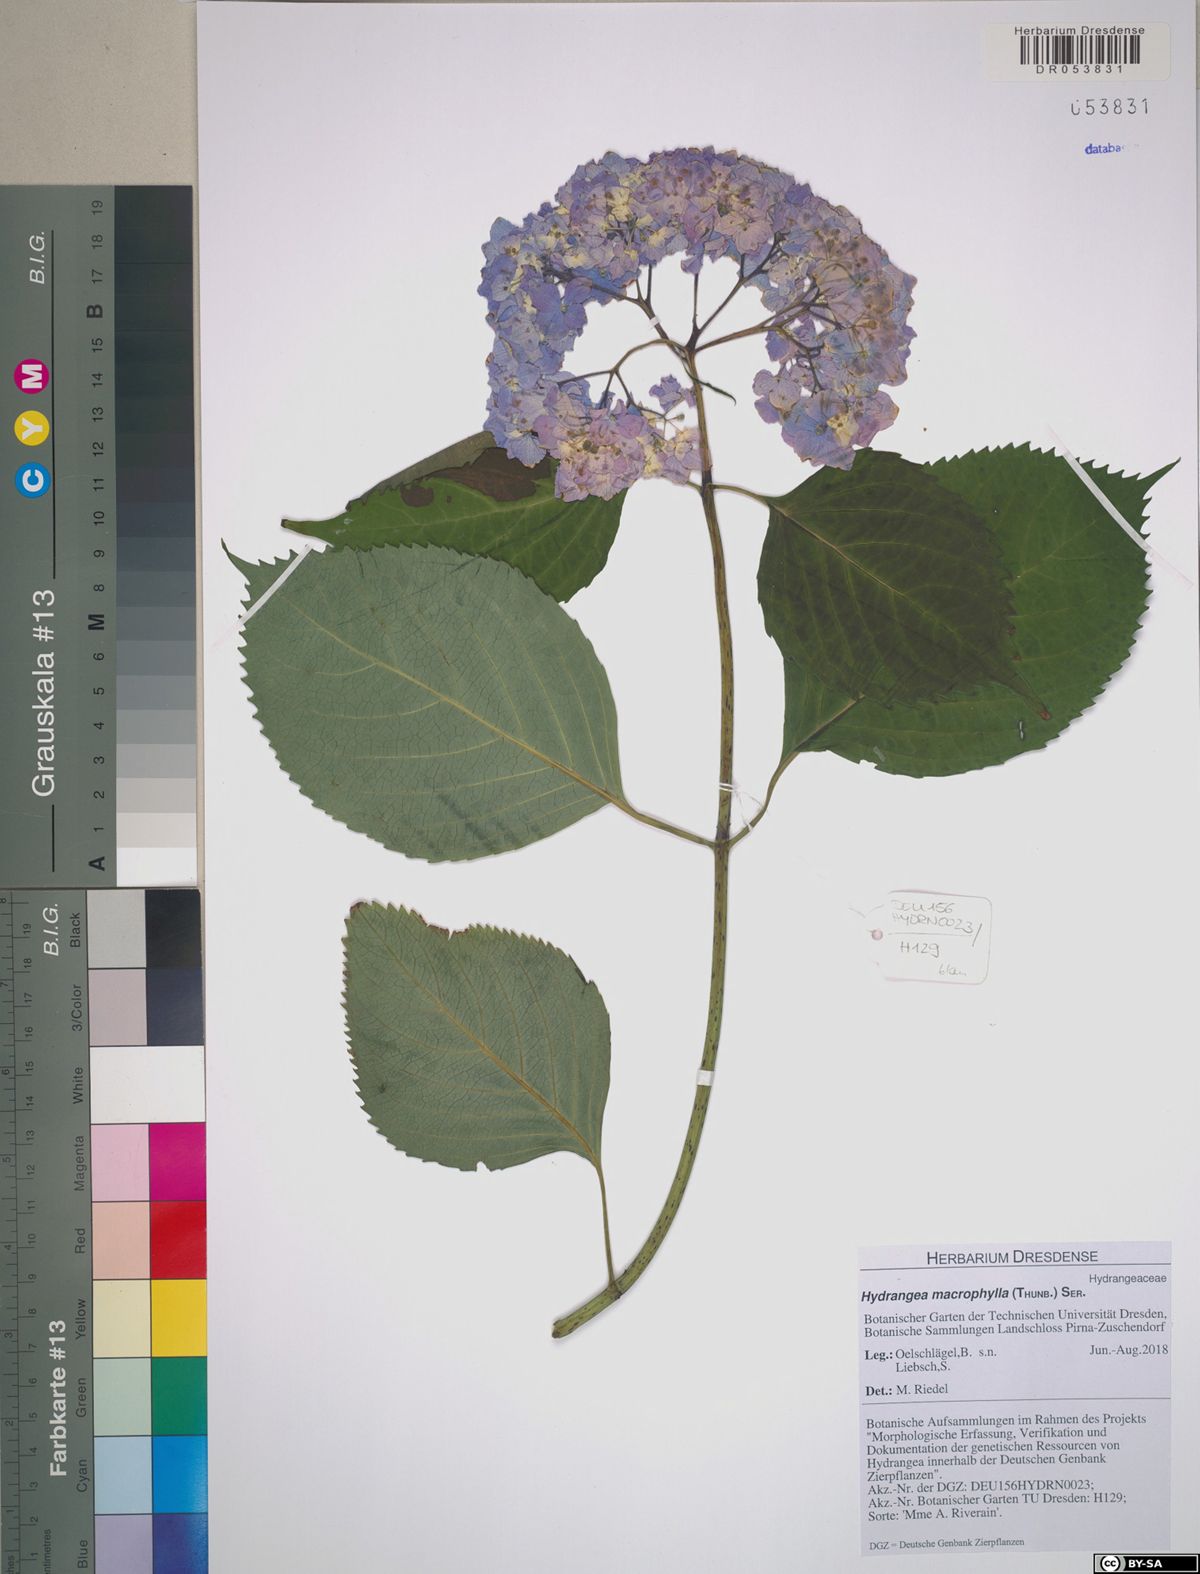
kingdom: Plantae
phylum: Tracheophyta
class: Magnoliopsida
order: Cornales
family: Hydrangeaceae
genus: Hydrangea
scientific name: Hydrangea macrophylla
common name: Hydrangea
